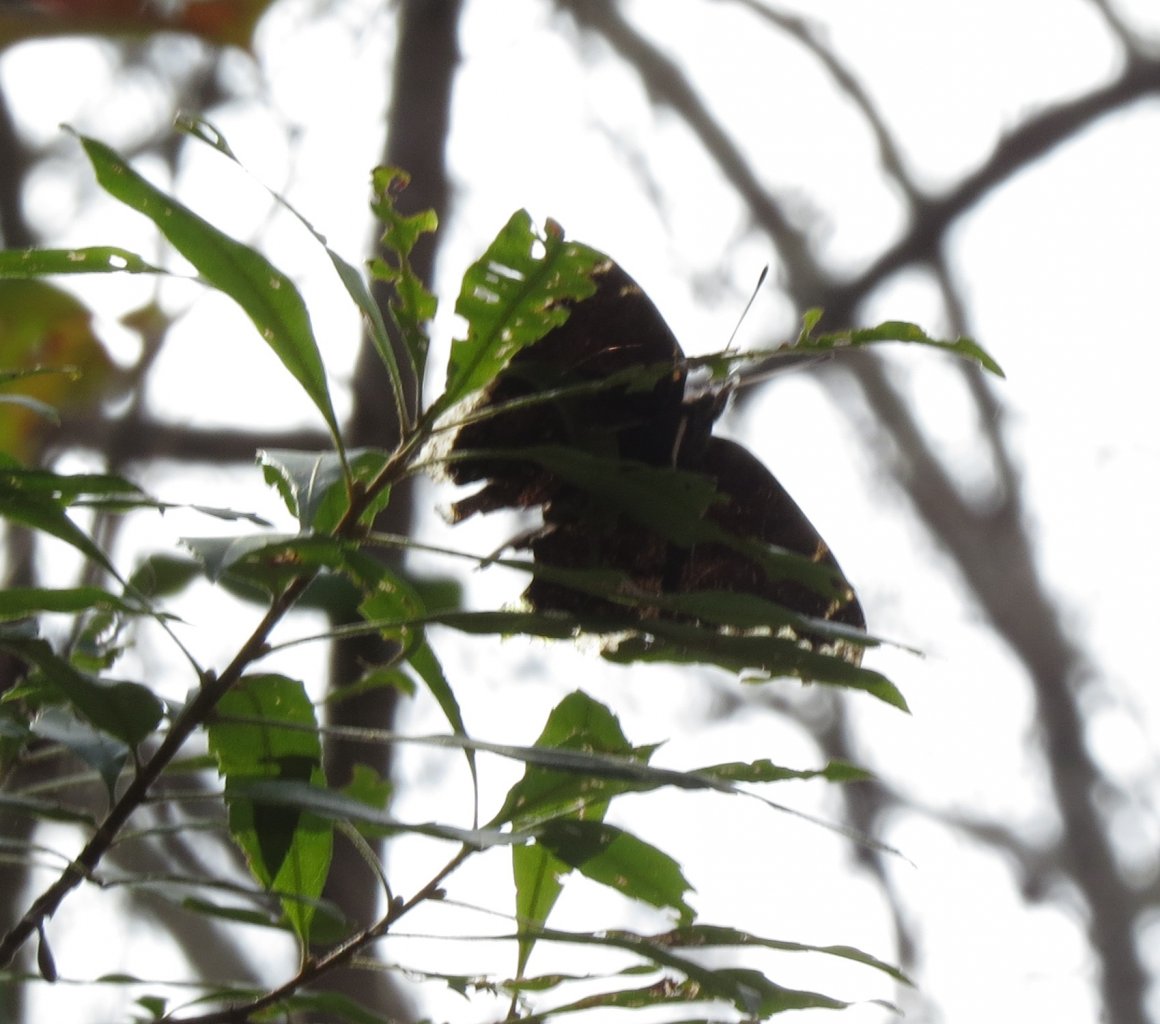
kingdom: Animalia
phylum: Arthropoda
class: Insecta
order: Lepidoptera
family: Nymphalidae
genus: Nymphalis
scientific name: Nymphalis antiopa
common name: Mourning Cloak
